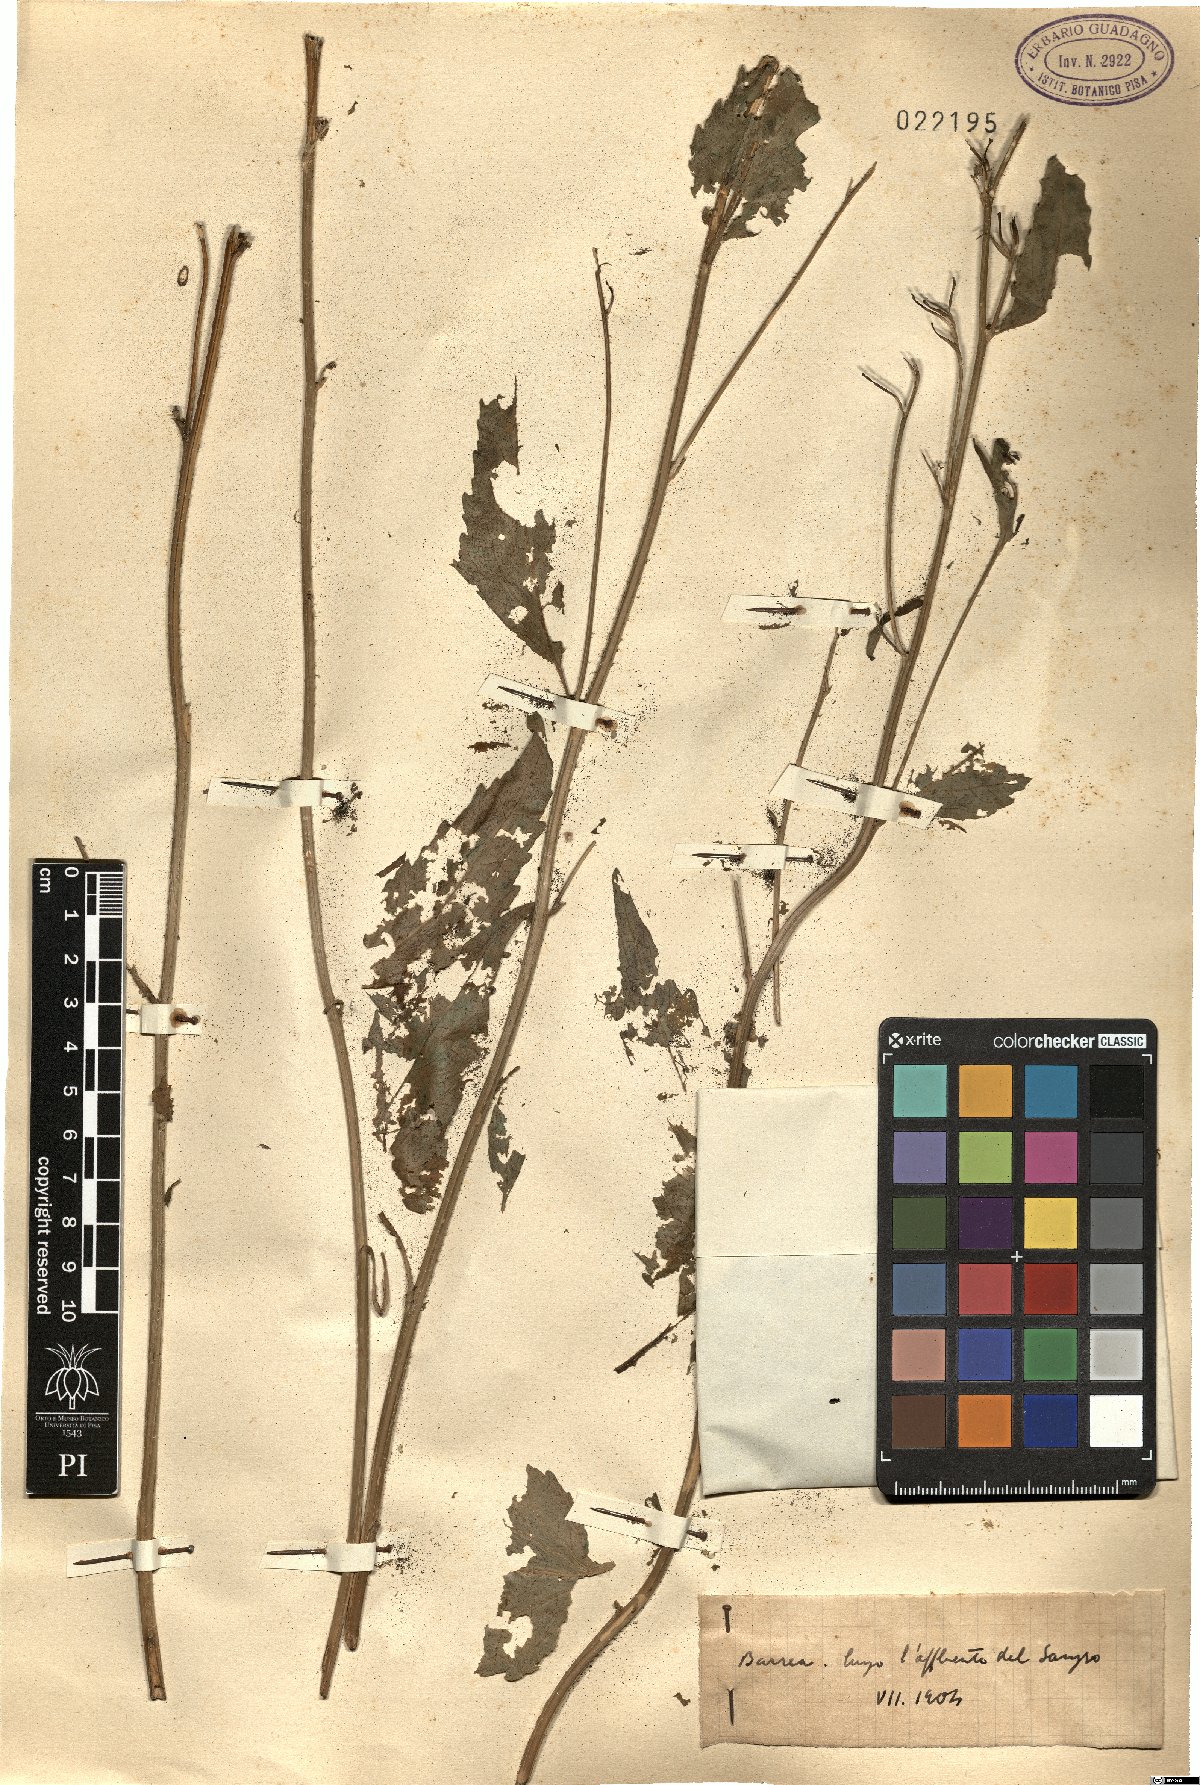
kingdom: Plantae
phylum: Tracheophyta
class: Magnoliopsida
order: Asterales
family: Campanulaceae
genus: Campanula
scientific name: Campanula
